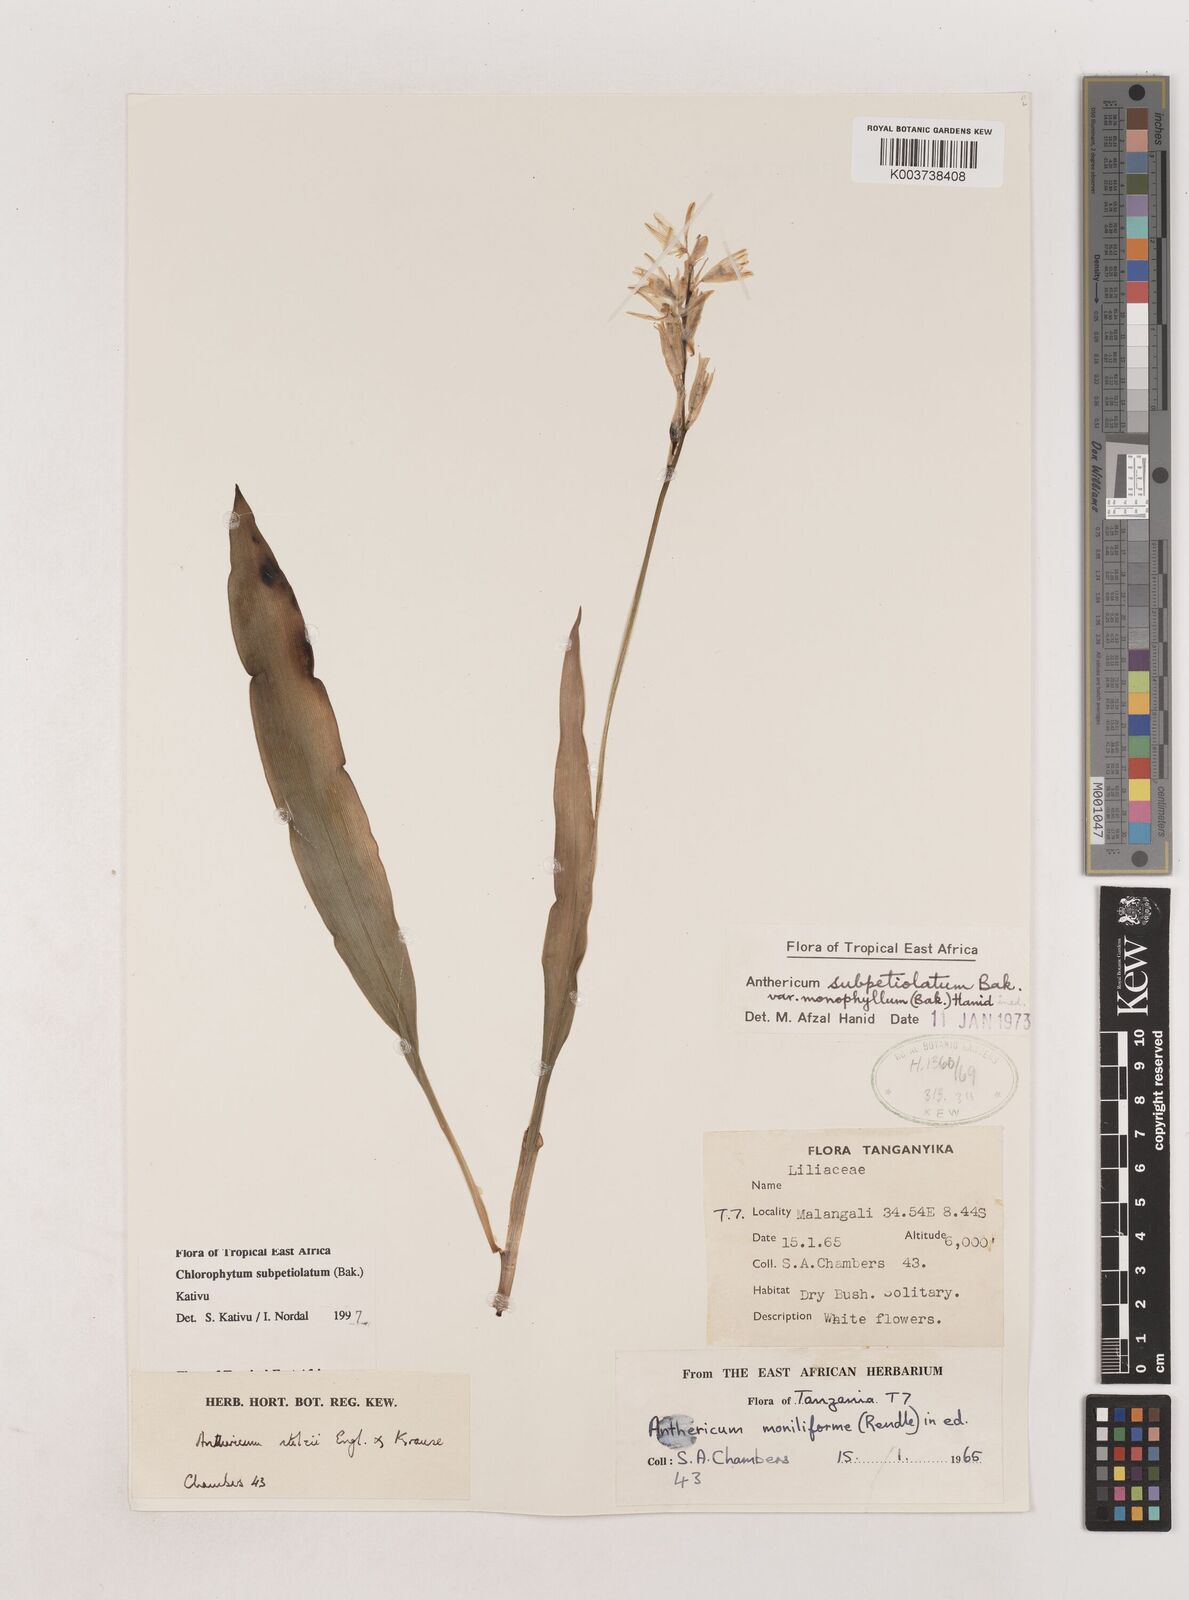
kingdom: Plantae
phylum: Tracheophyta
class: Liliopsida
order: Asparagales
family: Asparagaceae
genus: Chlorophytum
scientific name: Chlorophytum subpetiolatum
